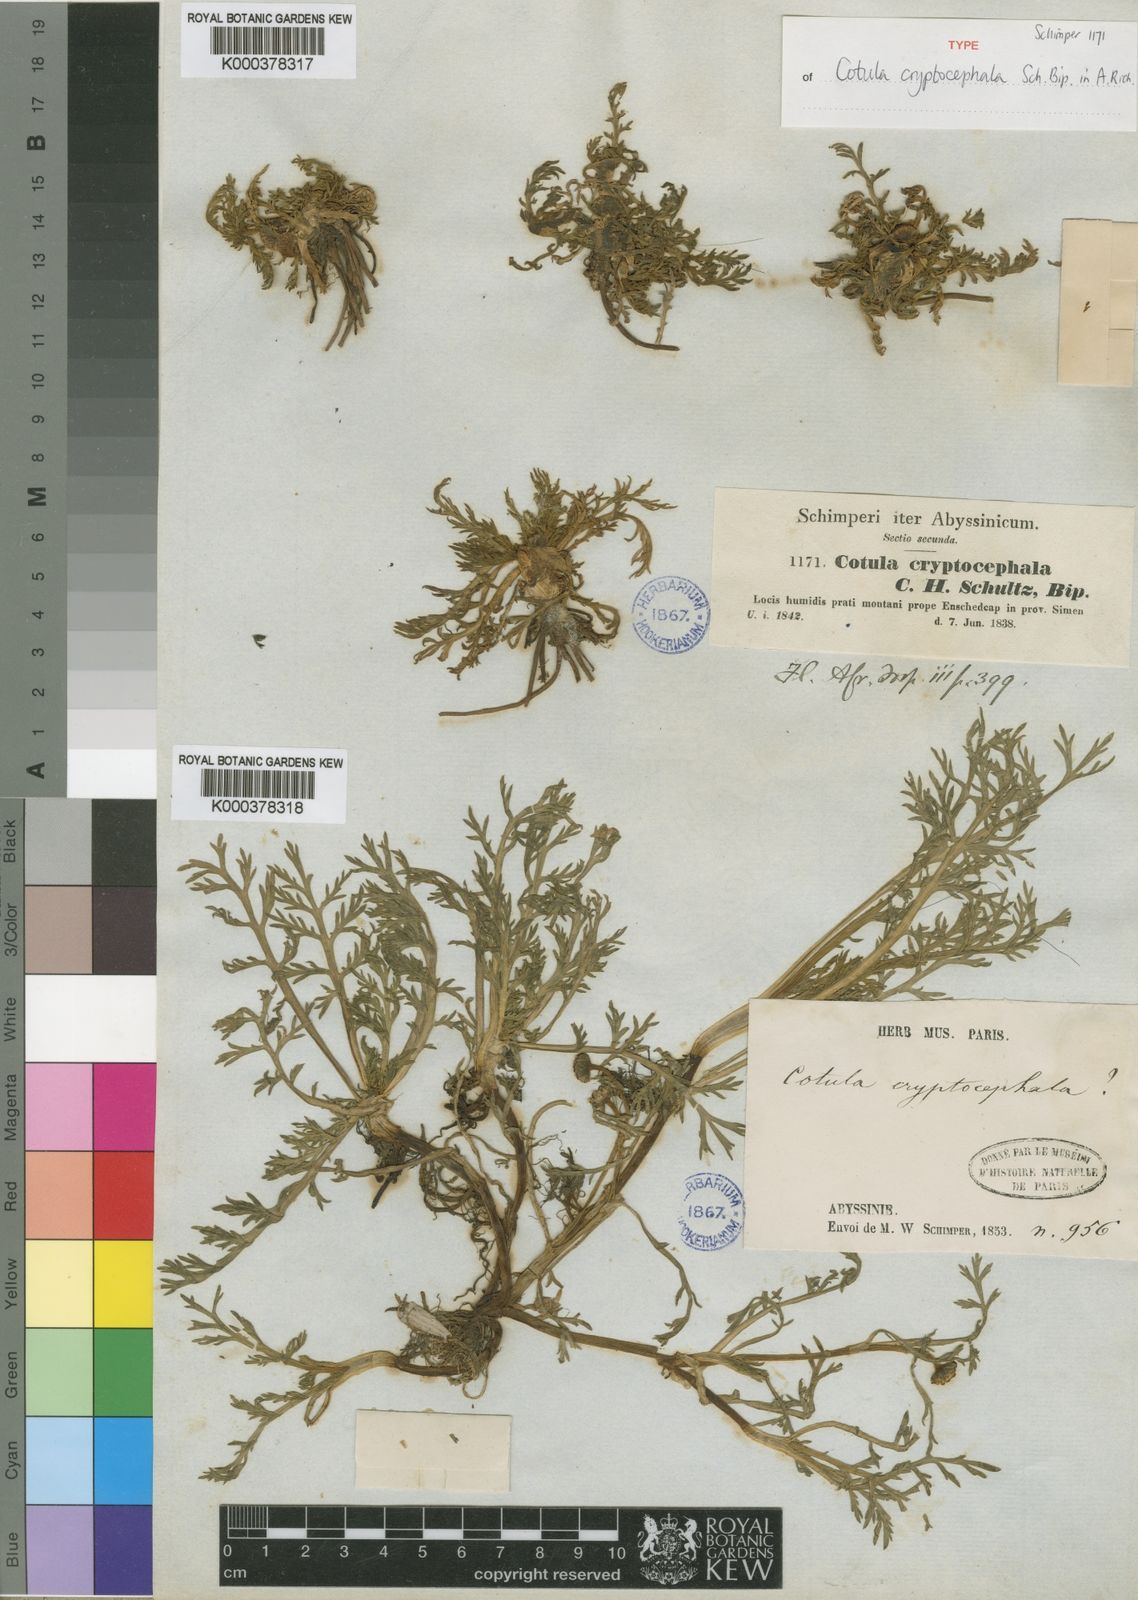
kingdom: Plantae
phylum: Tracheophyta
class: Magnoliopsida
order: Asterales
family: Asteraceae
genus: Cotula
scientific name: Cotula cryptocephala
